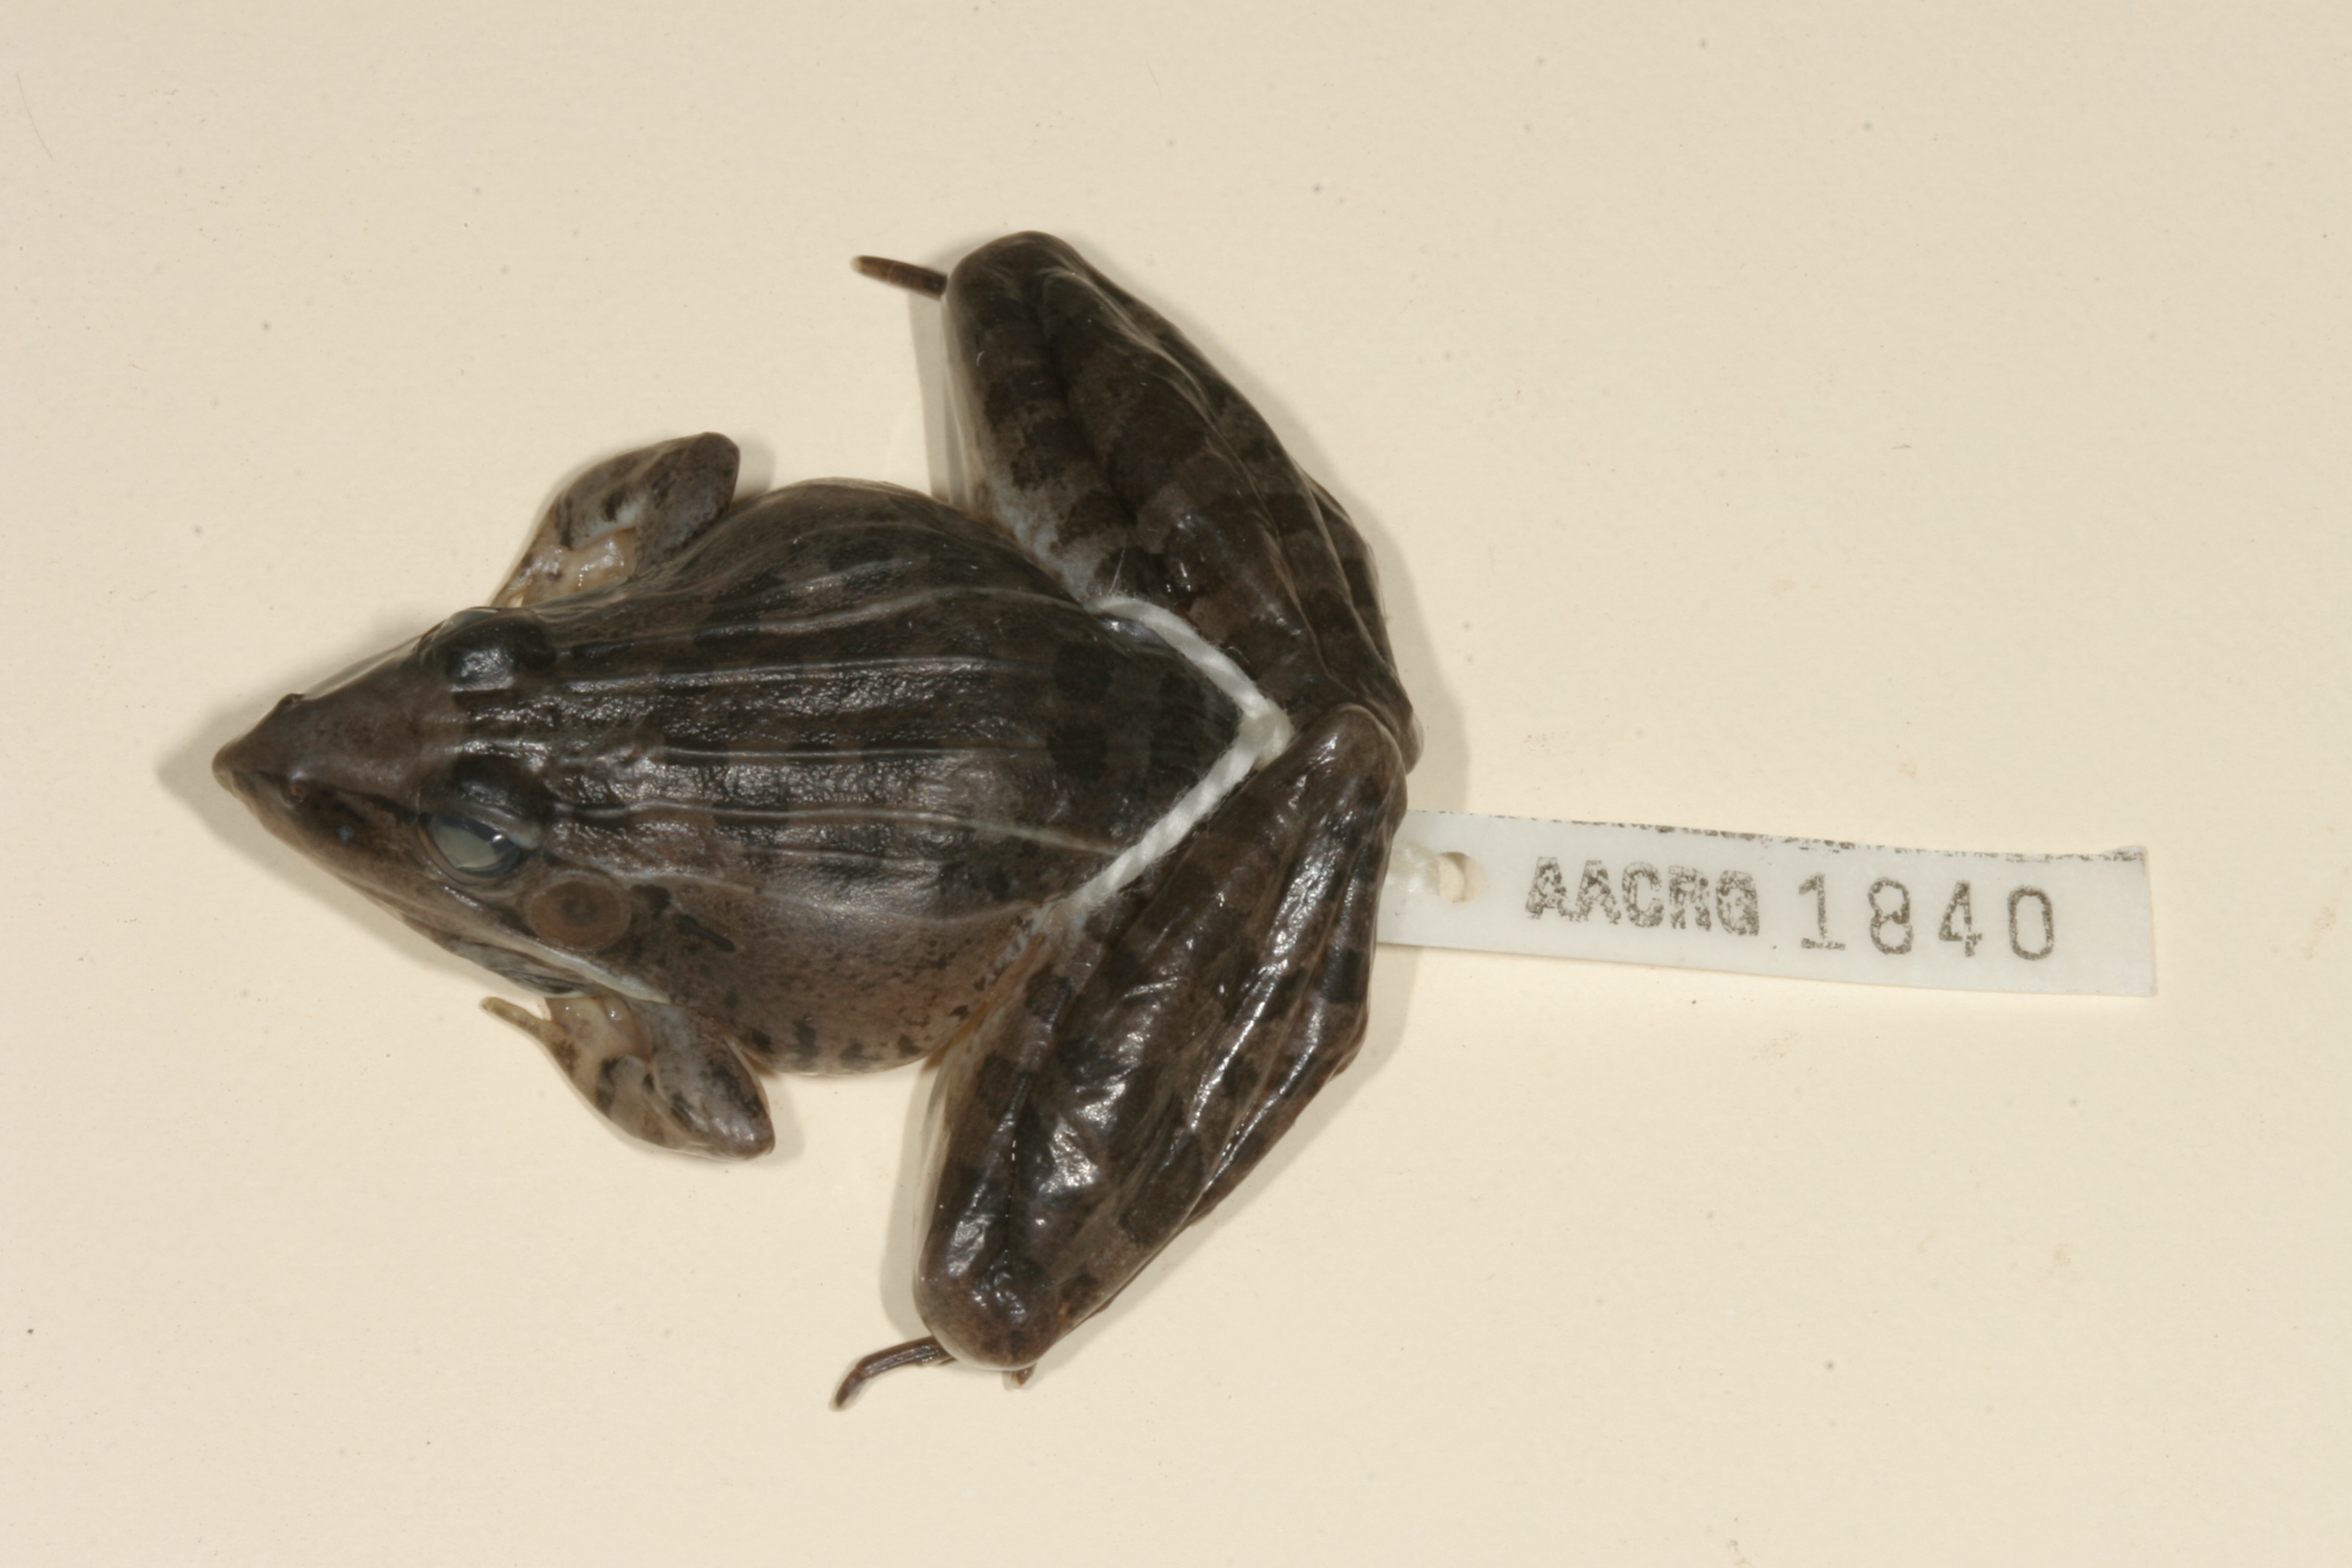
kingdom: Animalia
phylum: Chordata
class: Amphibia
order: Anura
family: Ptychadenidae
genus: Ptychadena
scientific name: Ptychadena oxyrhynchus
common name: Sharp-nosed ridged frog
